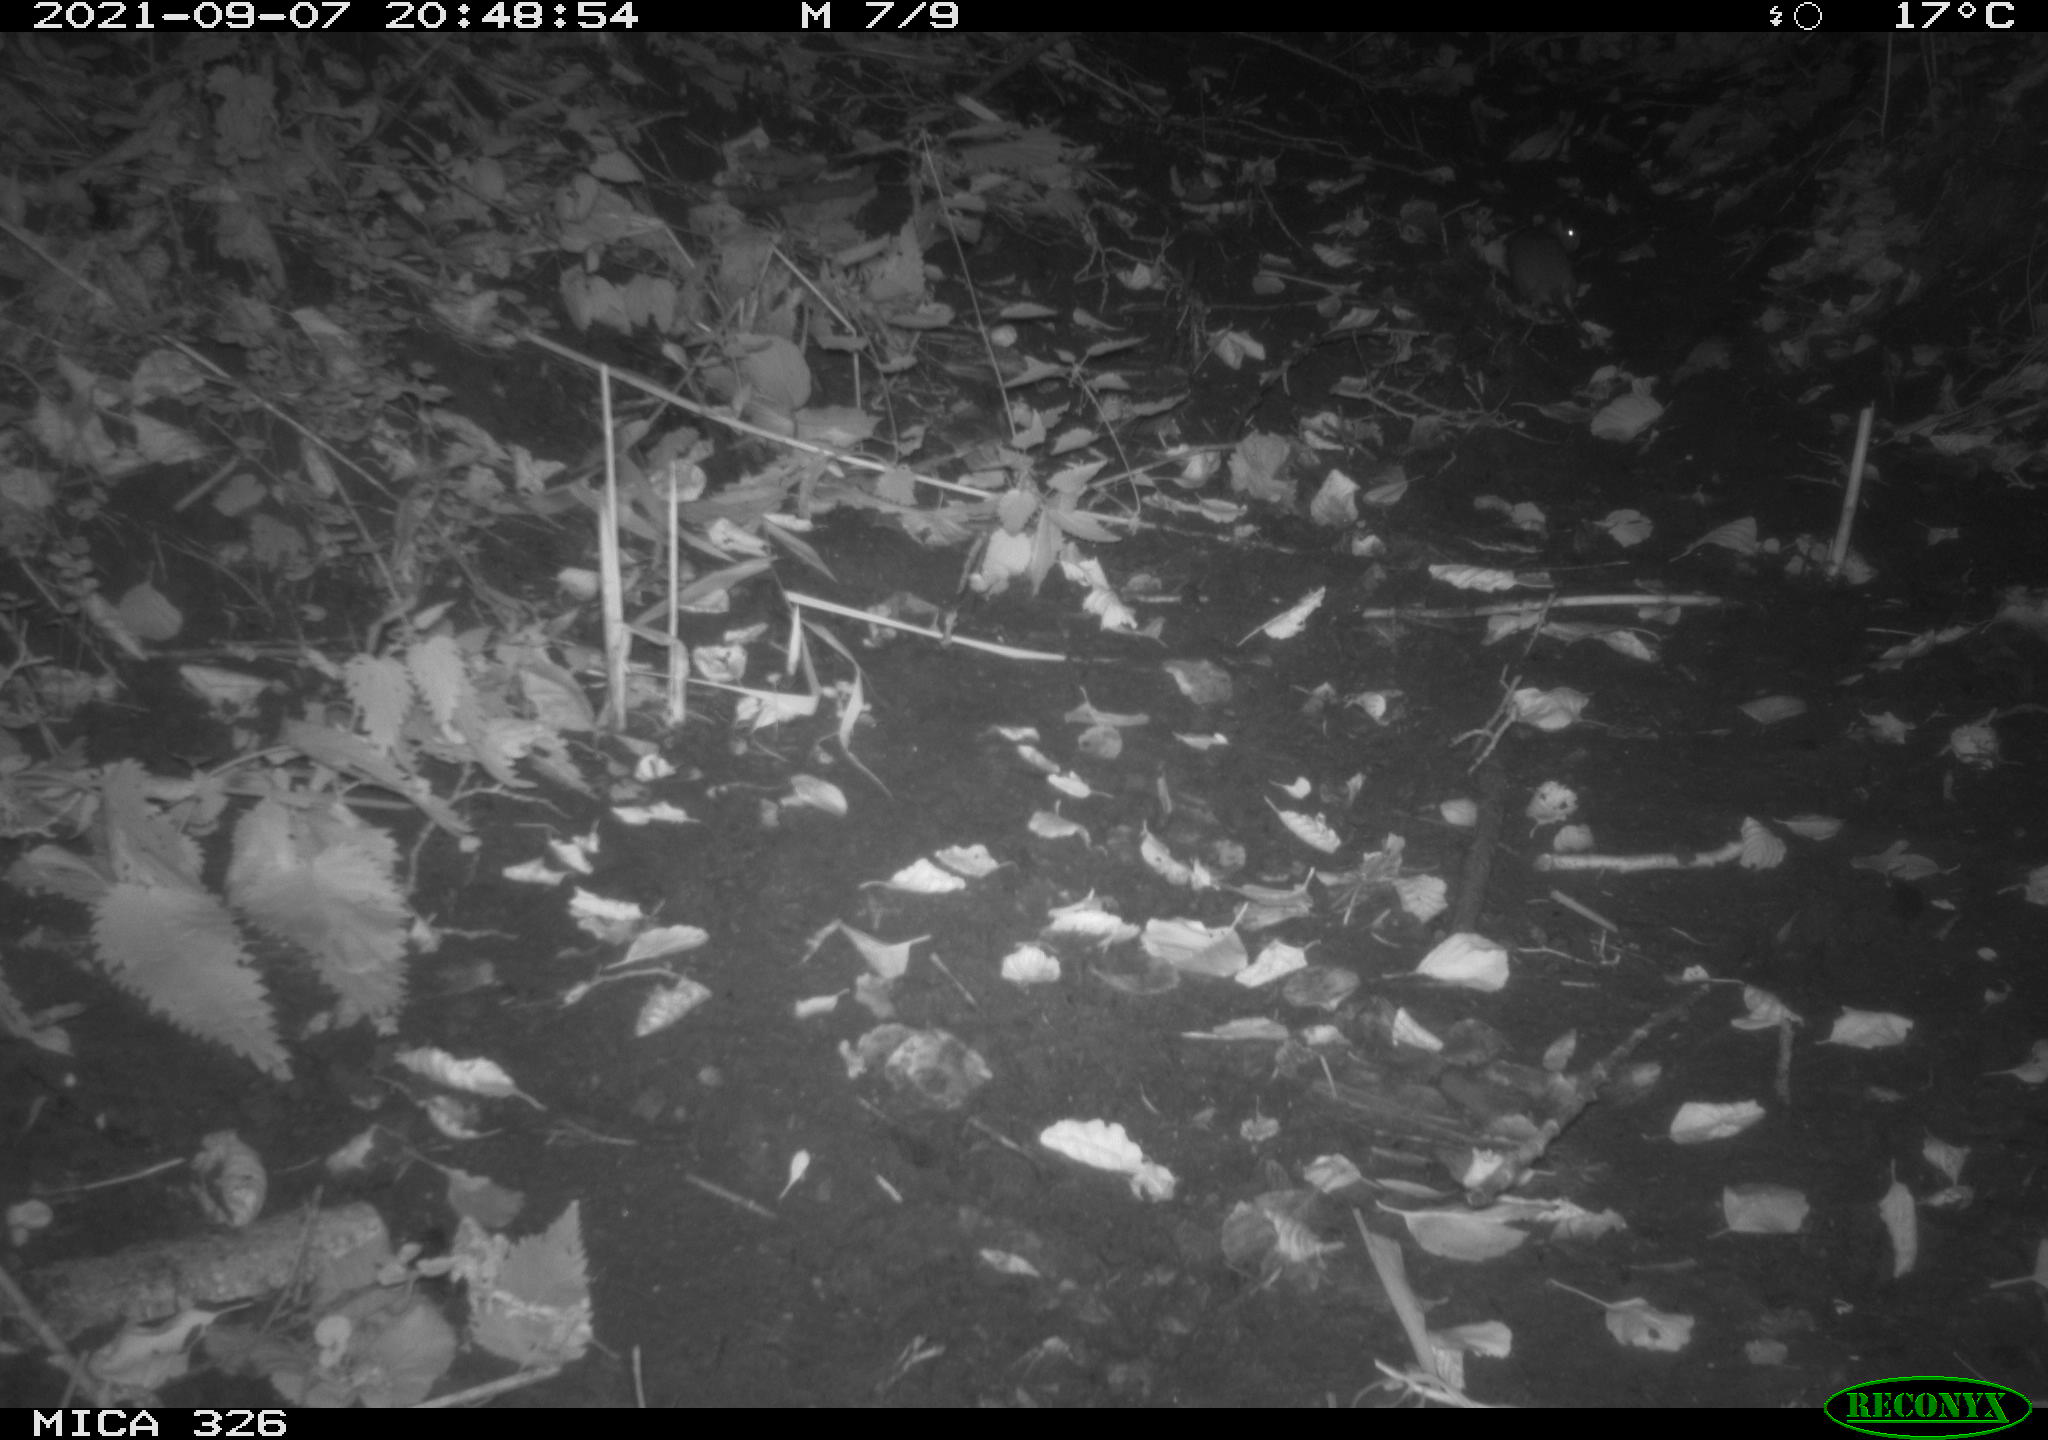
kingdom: Animalia
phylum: Chordata
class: Mammalia
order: Rodentia
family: Muridae
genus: Rattus
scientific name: Rattus norvegicus
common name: Brown rat
